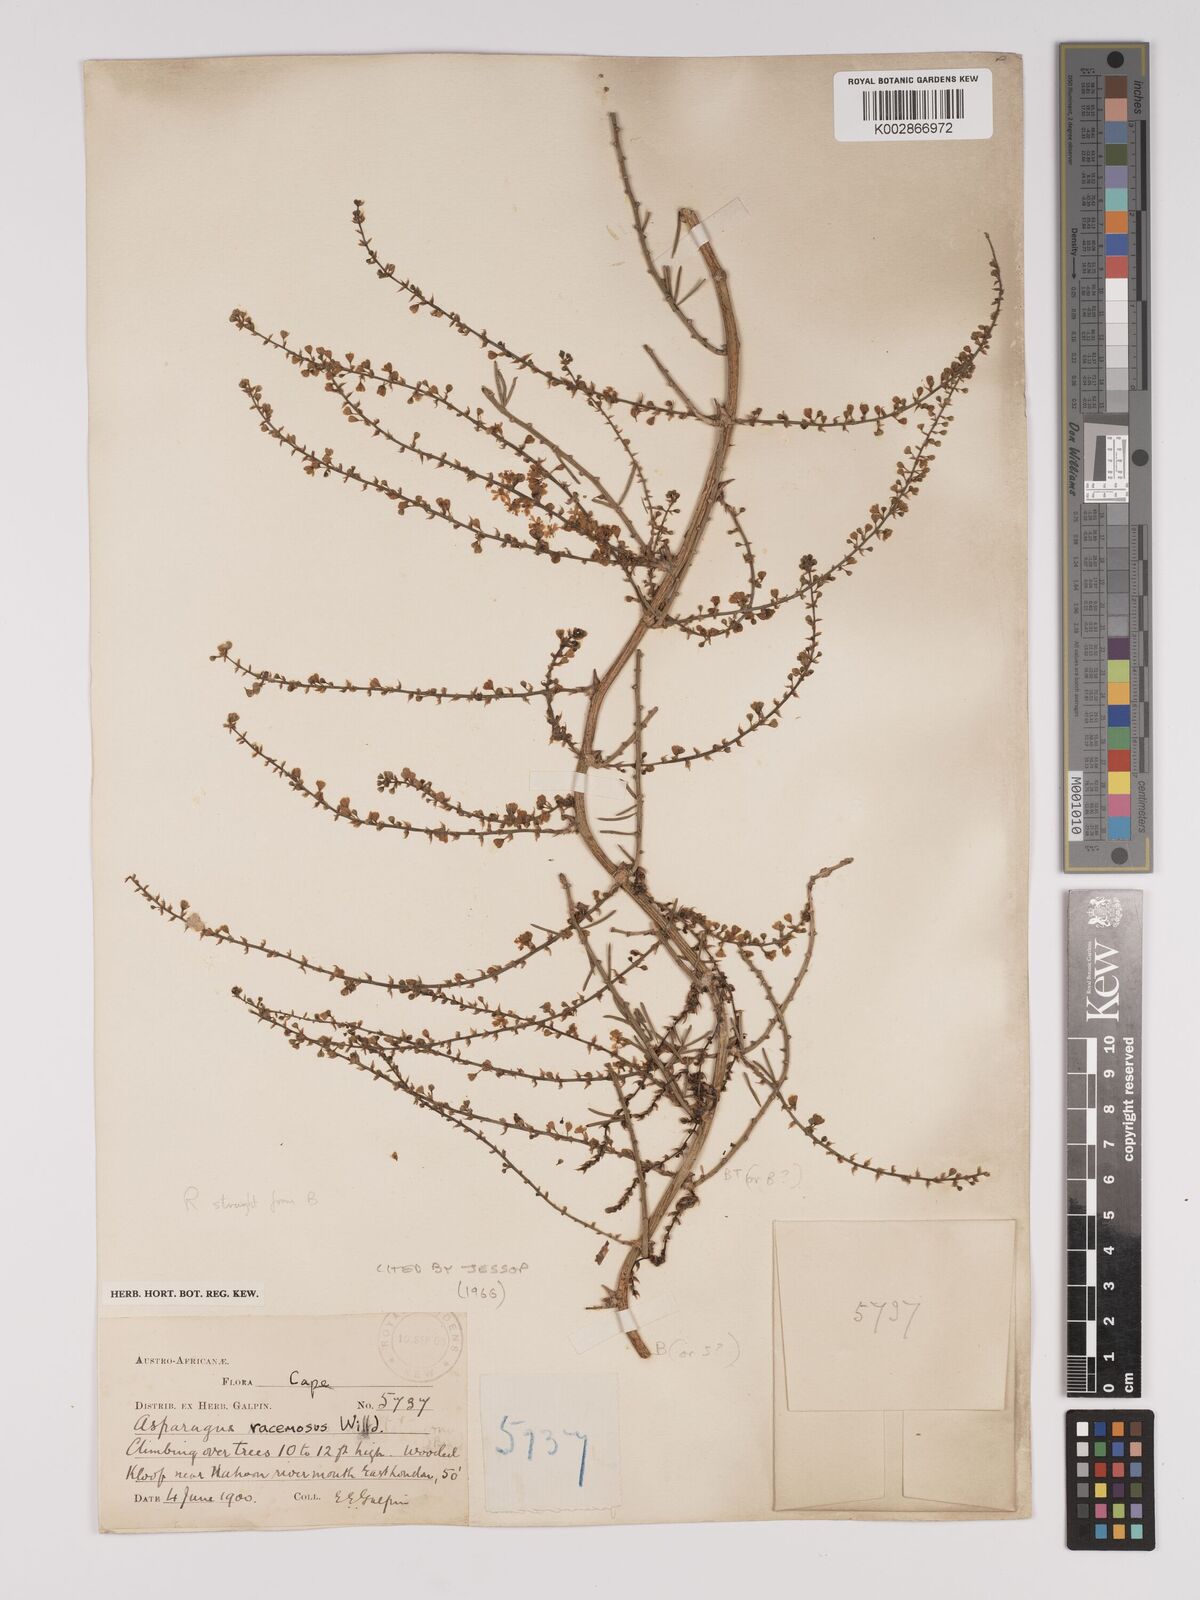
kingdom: Plantae
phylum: Tracheophyta
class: Liliopsida
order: Asparagales
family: Asparagaceae
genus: Asparagus
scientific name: Asparagus racemosus
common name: Asparagus-fern
